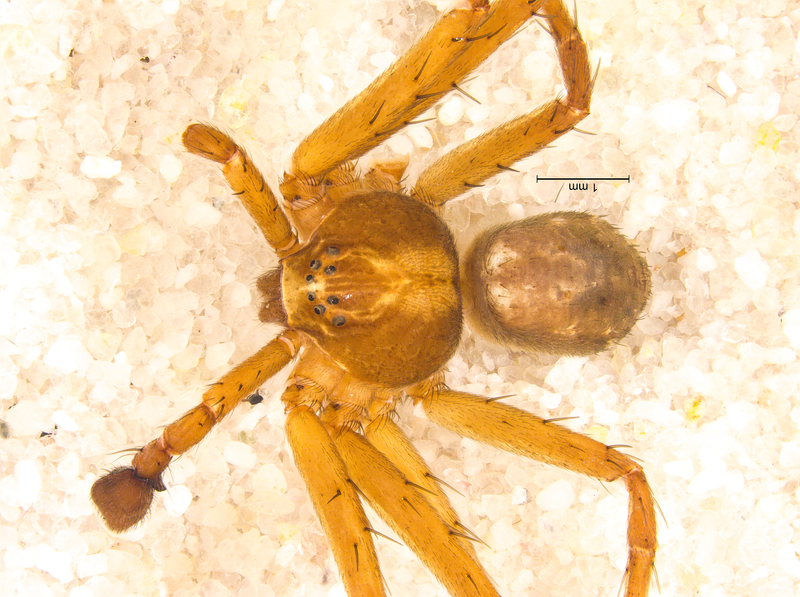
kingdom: Animalia
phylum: Arthropoda
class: Arachnida
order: Araneae
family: Philodromidae
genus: Philodromus
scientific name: Philodromus aureolus
